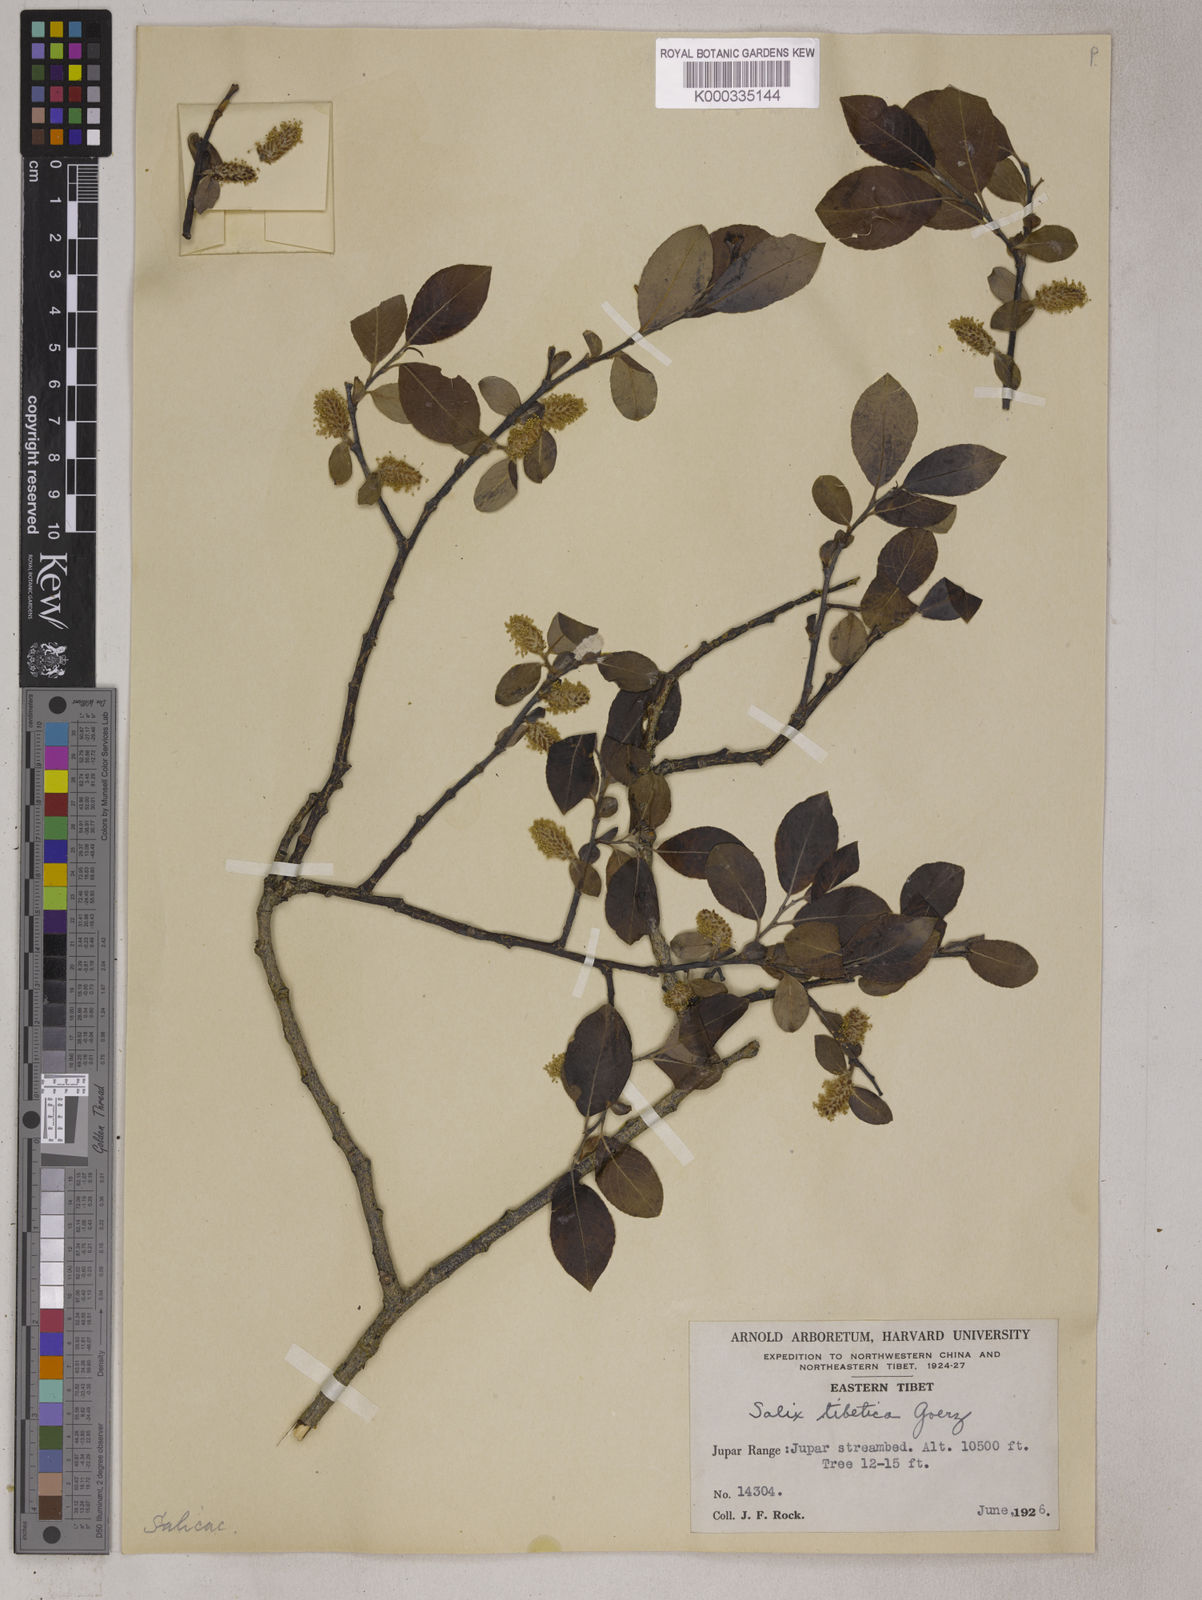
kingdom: Plantae
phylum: Tracheophyta
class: Magnoliopsida
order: Malpighiales
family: Salicaceae
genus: Salix
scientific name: Salix
